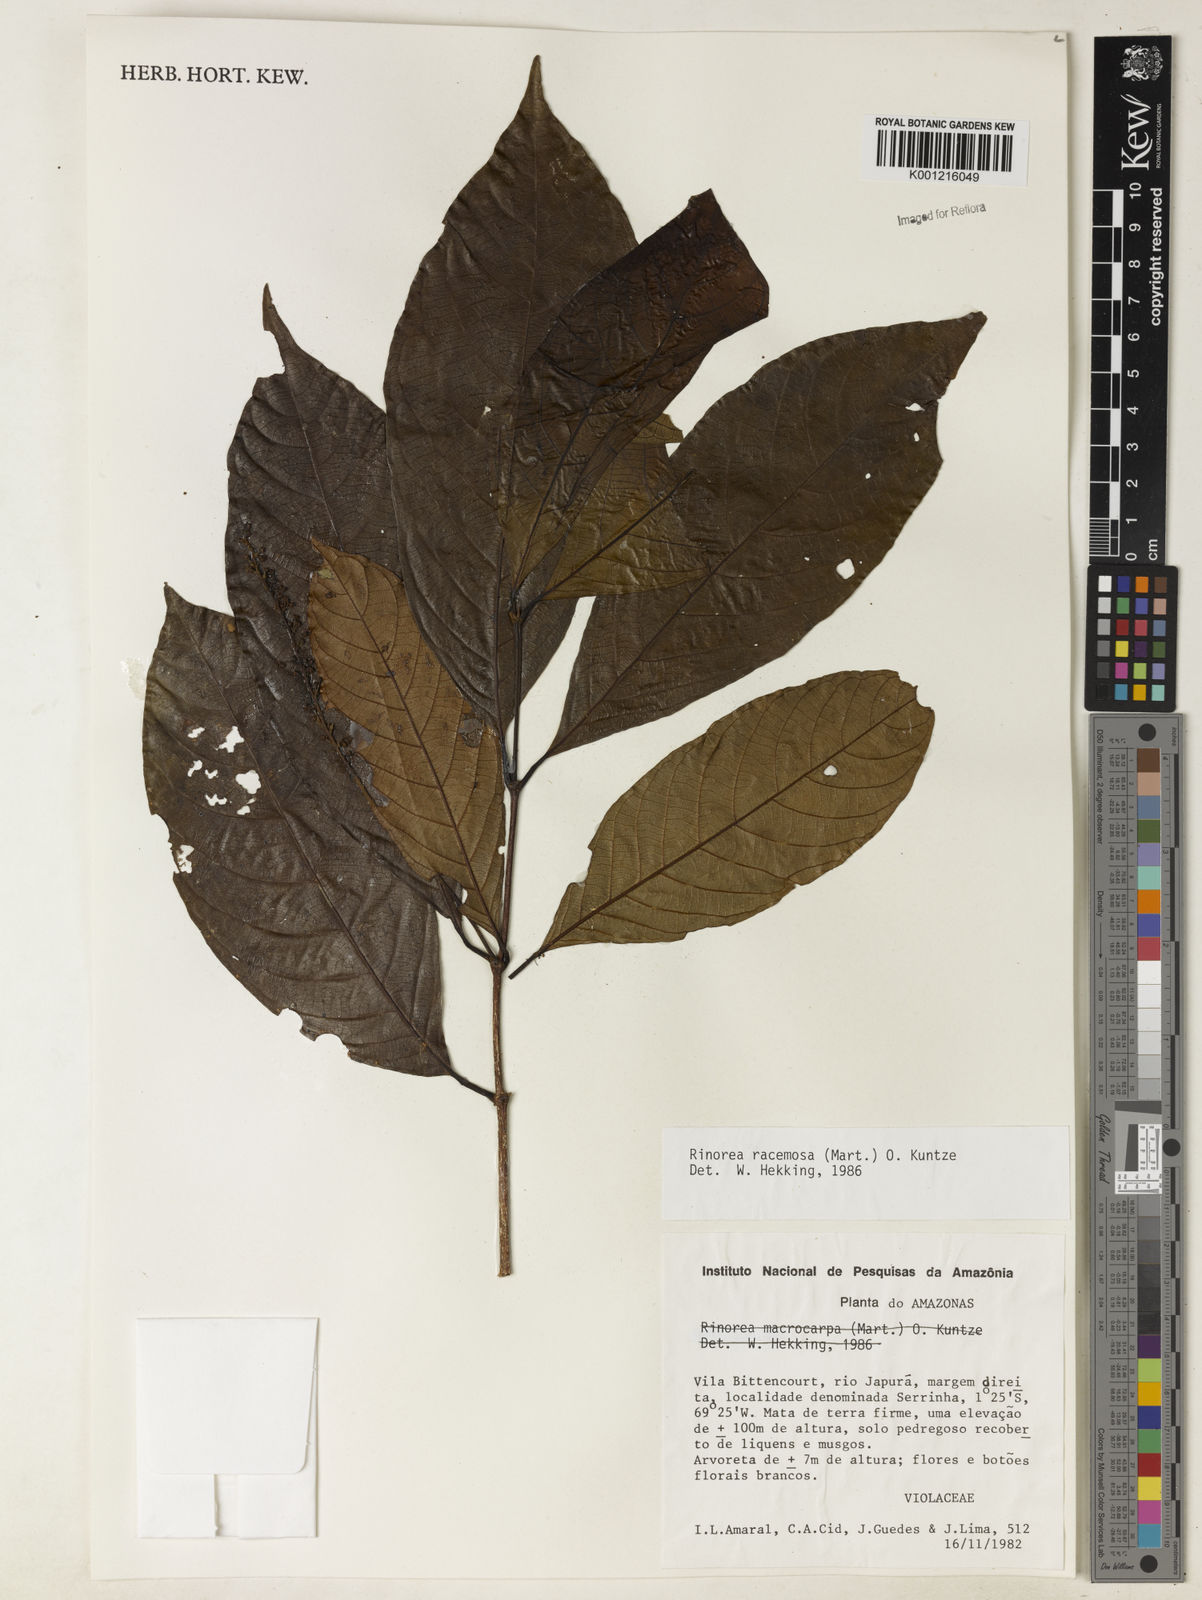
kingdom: Plantae
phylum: Tracheophyta
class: Magnoliopsida
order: Malpighiales
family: Violaceae
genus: Rinorea
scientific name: Rinorea racemosa
